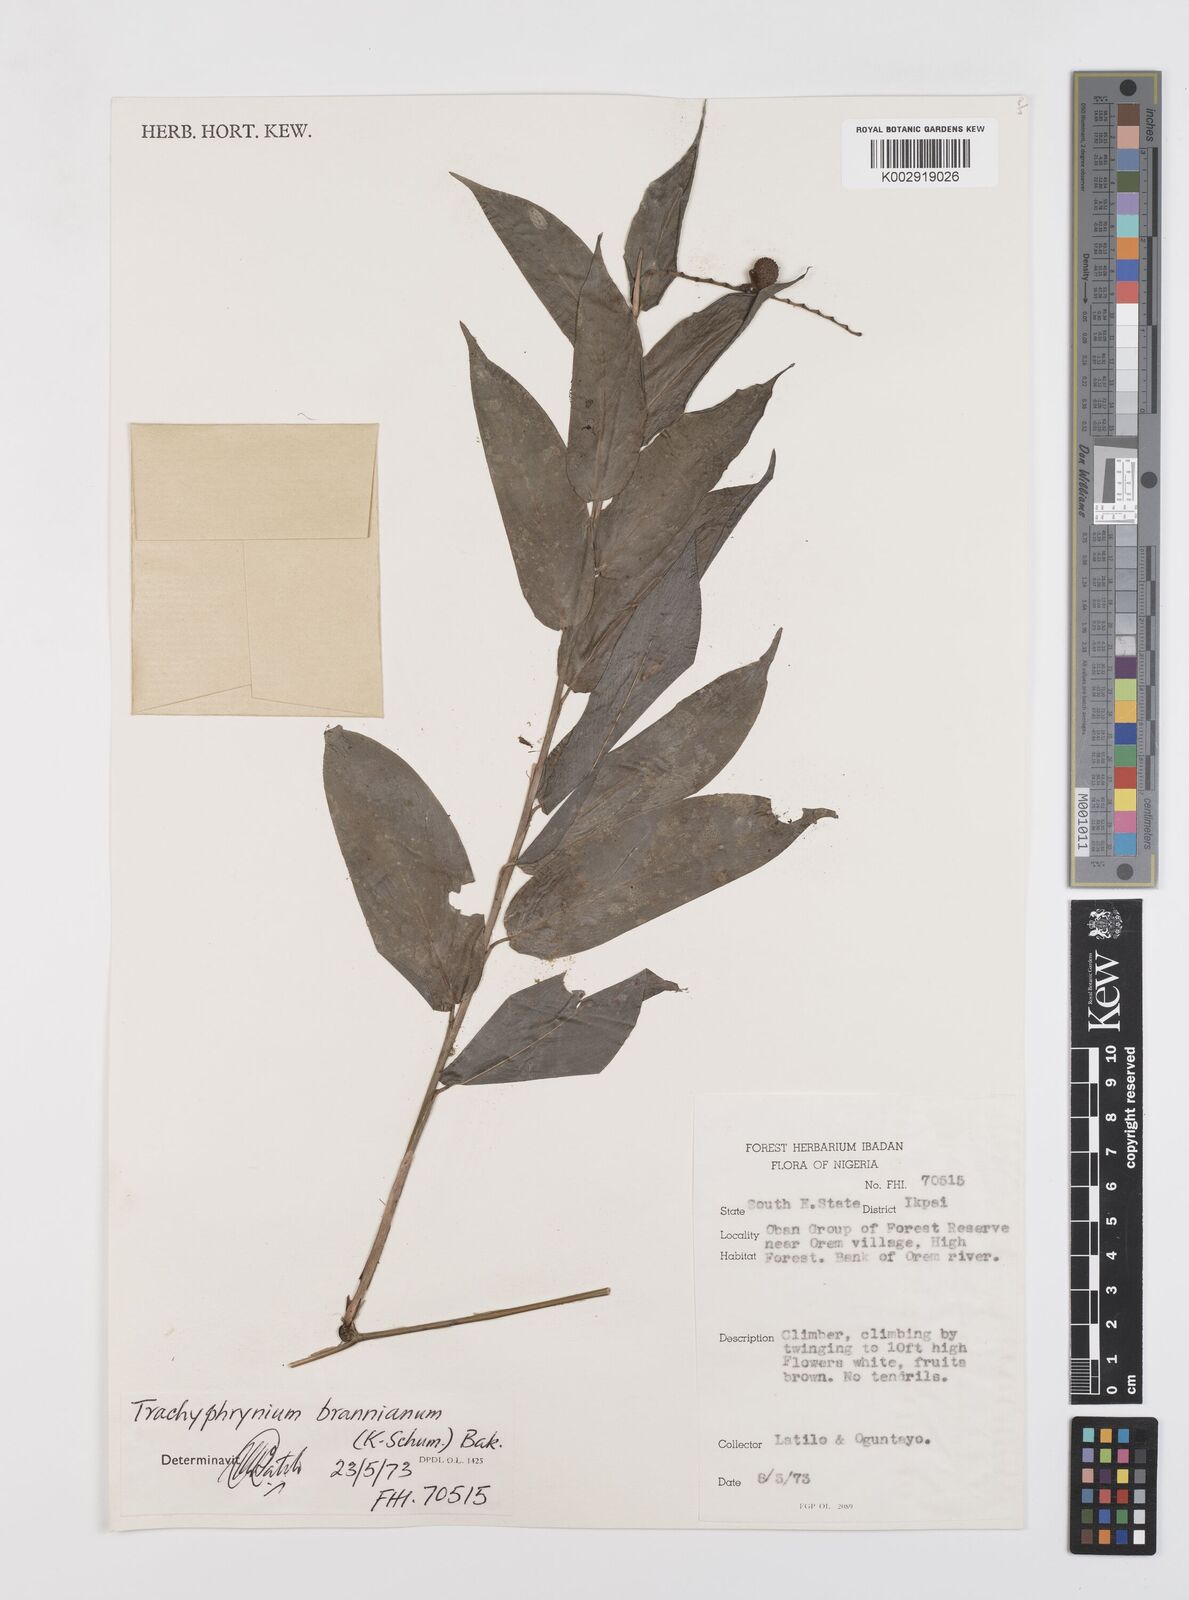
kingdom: Plantae
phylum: Tracheophyta
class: Liliopsida
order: Zingiberales
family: Marantaceae
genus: Trachyphrynium
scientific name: Trachyphrynium braunianum
